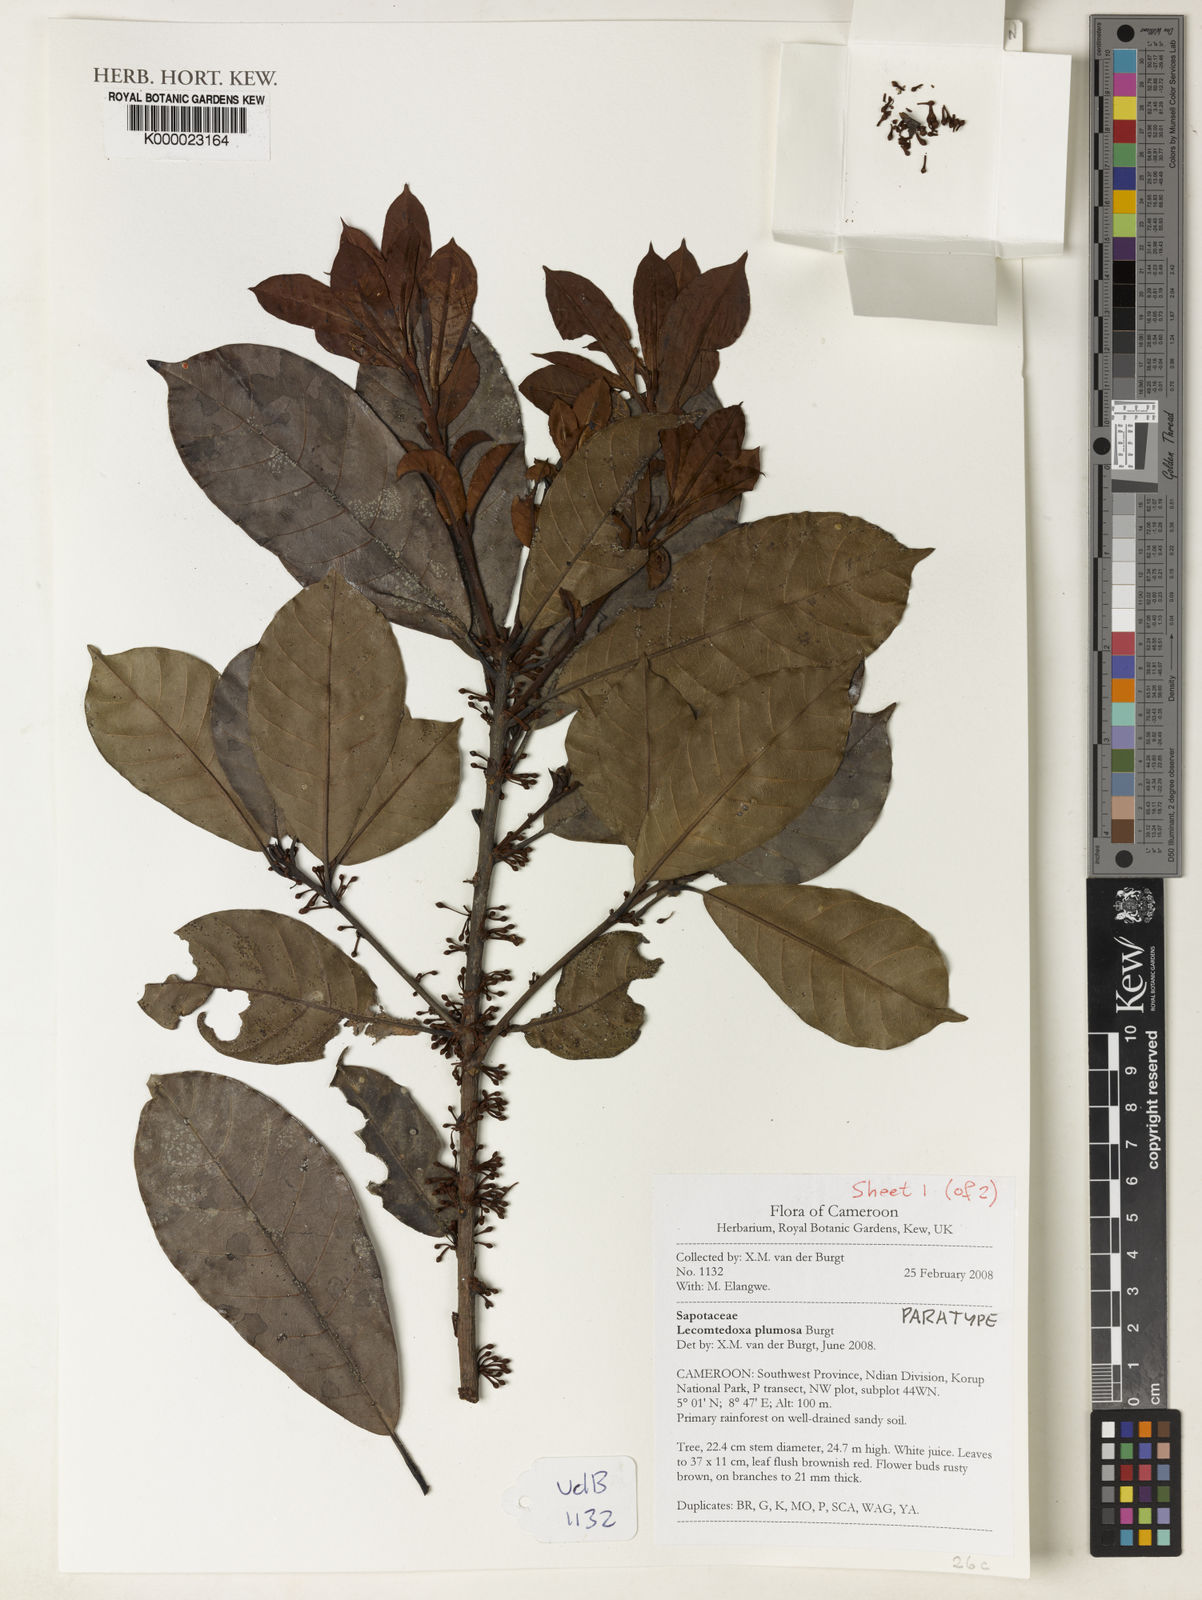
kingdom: Plantae
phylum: Tracheophyta
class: Magnoliopsida
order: Ericales
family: Sapotaceae
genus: Lecomtedoxa
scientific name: Lecomtedoxa plumosa
